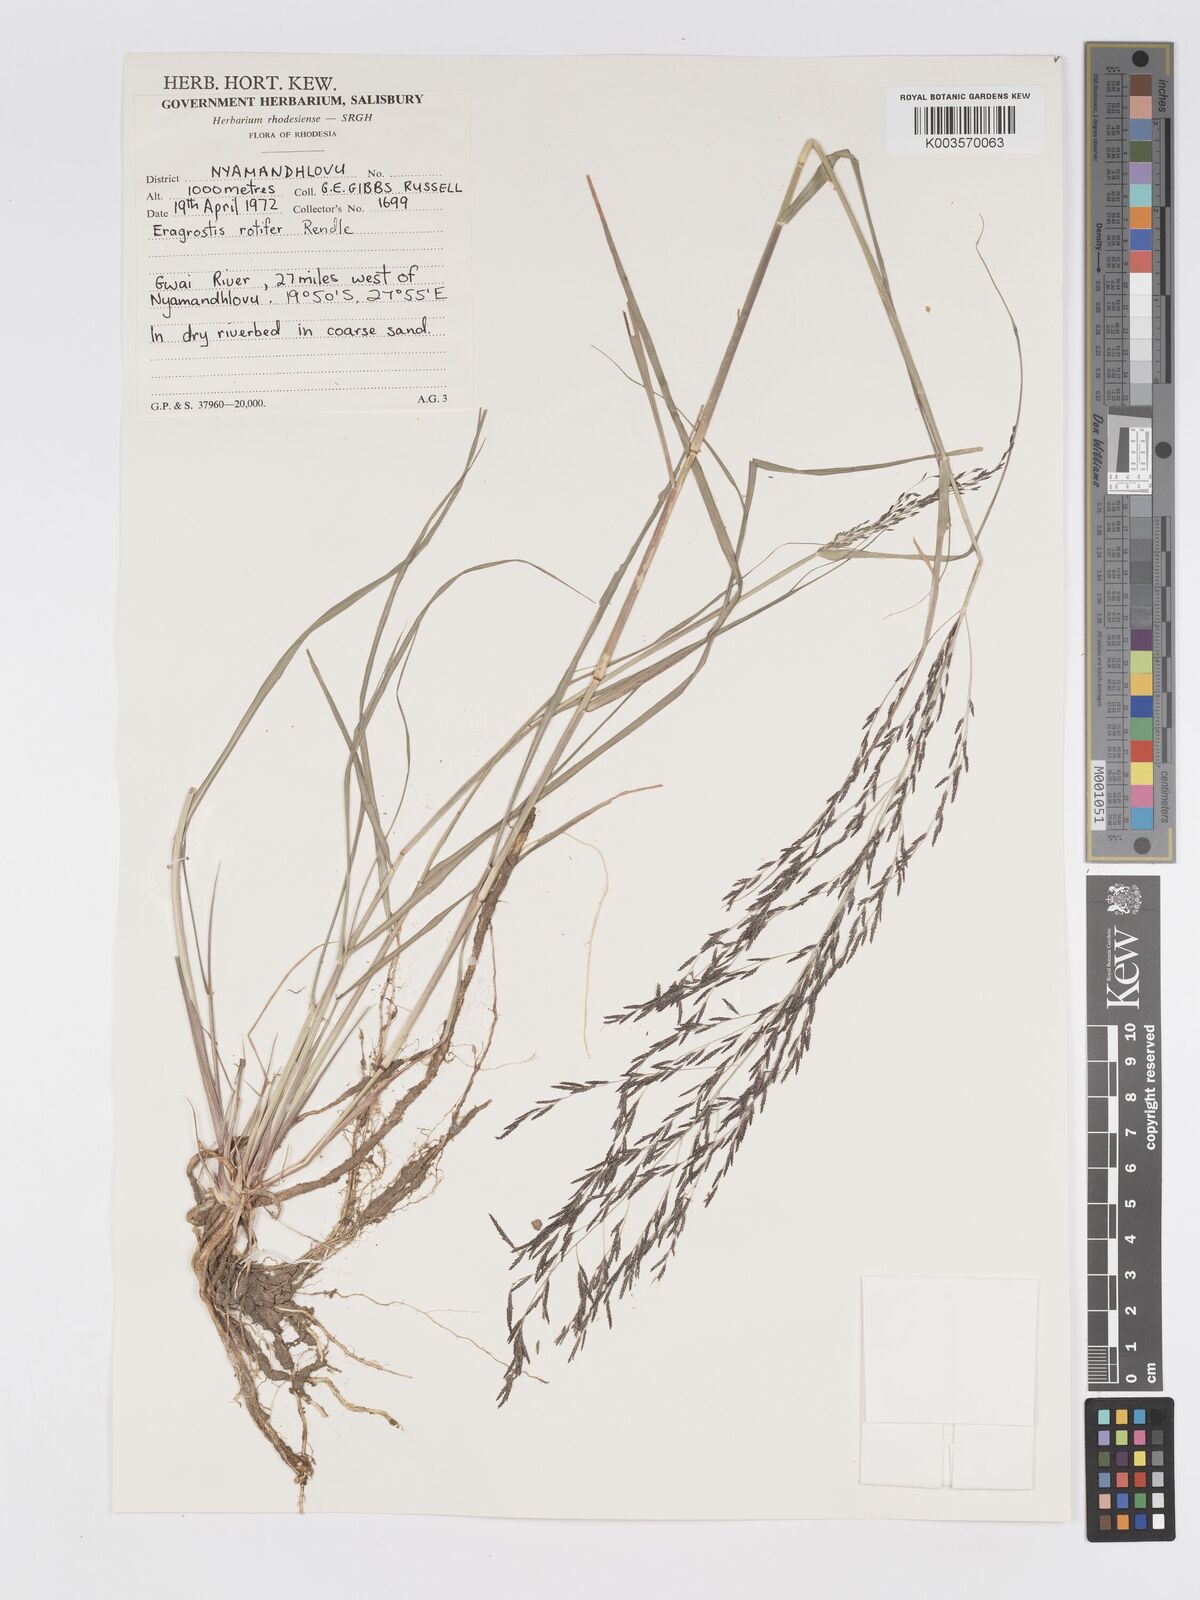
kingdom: Plantae
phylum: Tracheophyta
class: Liliopsida
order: Poales
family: Poaceae
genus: Eragrostis
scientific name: Eragrostis rotifer
